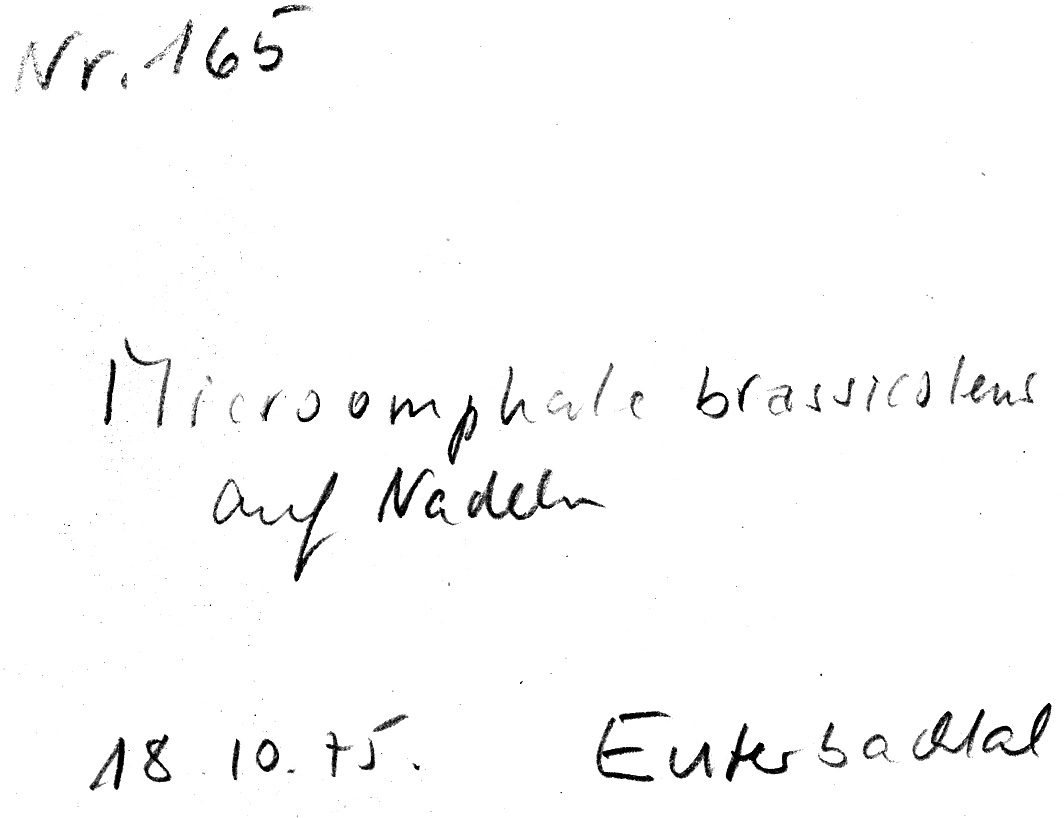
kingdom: Fungi
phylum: Basidiomycota
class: Agaricomycetes
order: Agaricales
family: Omphalotaceae
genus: Gymnopus
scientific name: Gymnopus brassicolens
